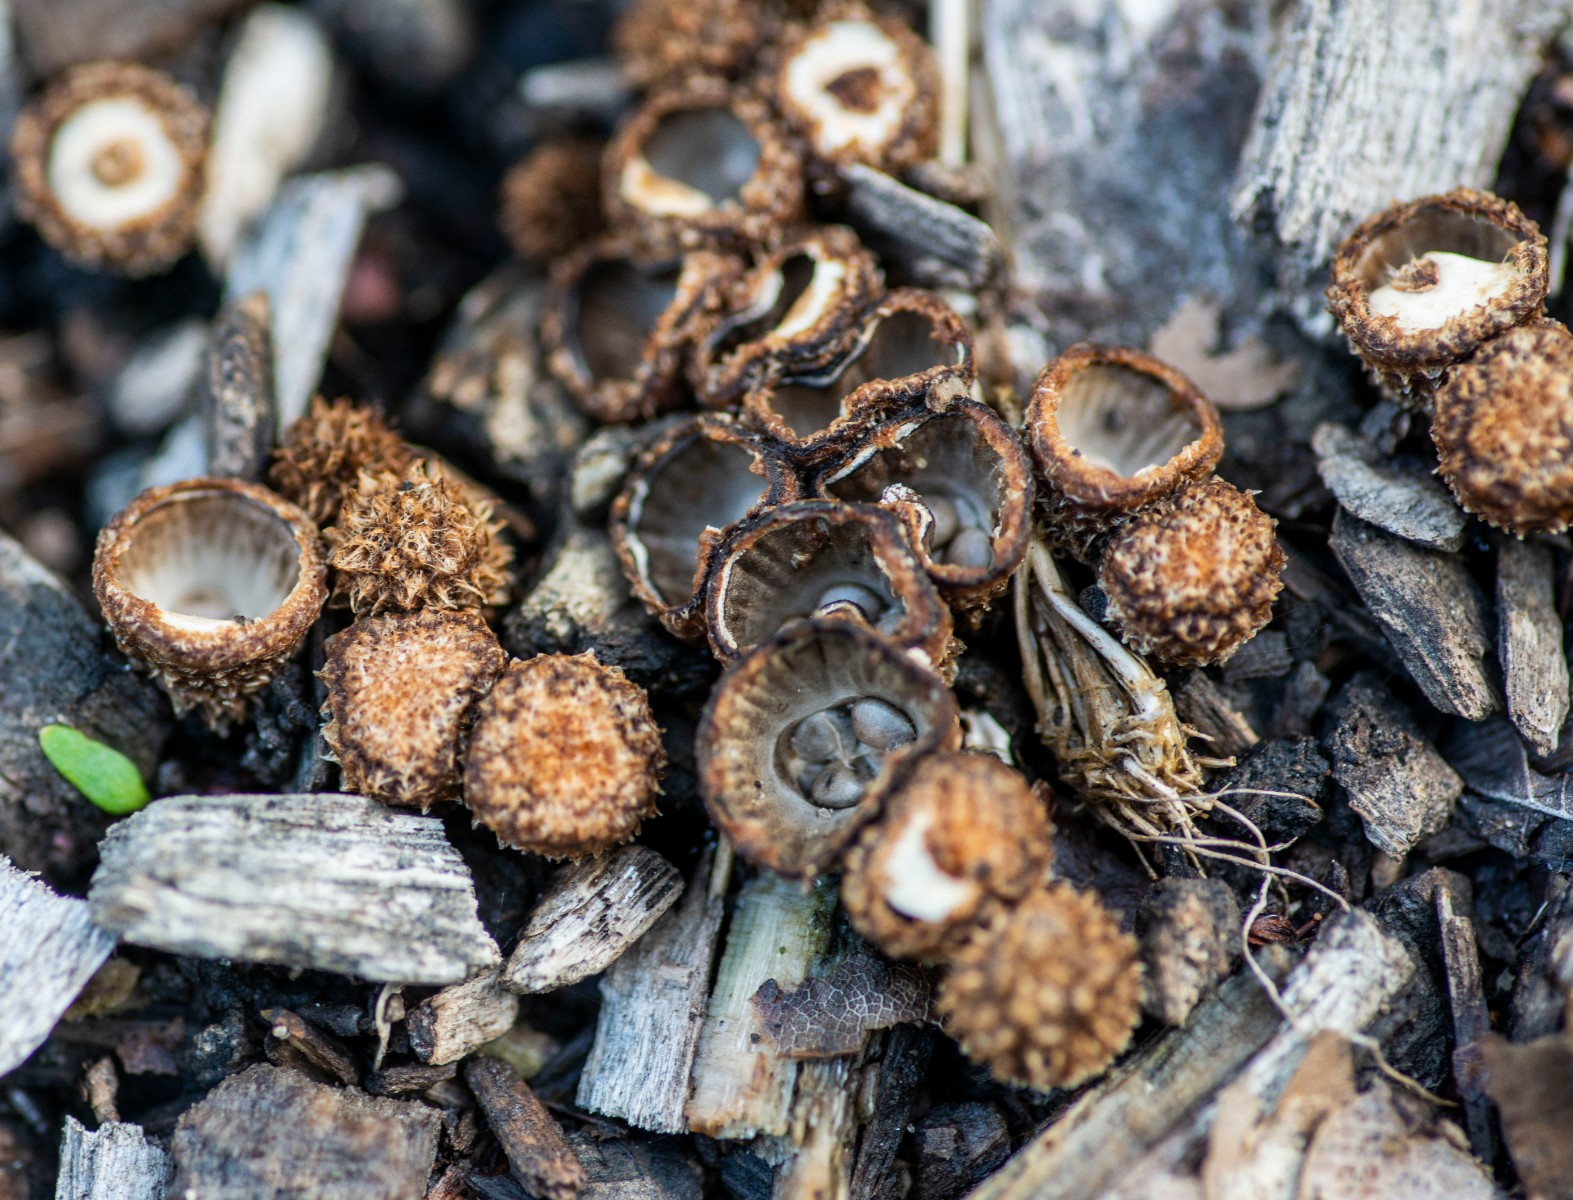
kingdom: Fungi
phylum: Basidiomycota
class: Agaricomycetes
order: Agaricales
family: Agaricaceae
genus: Cyathus
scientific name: Cyathus striatus
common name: stribet redesvamp
